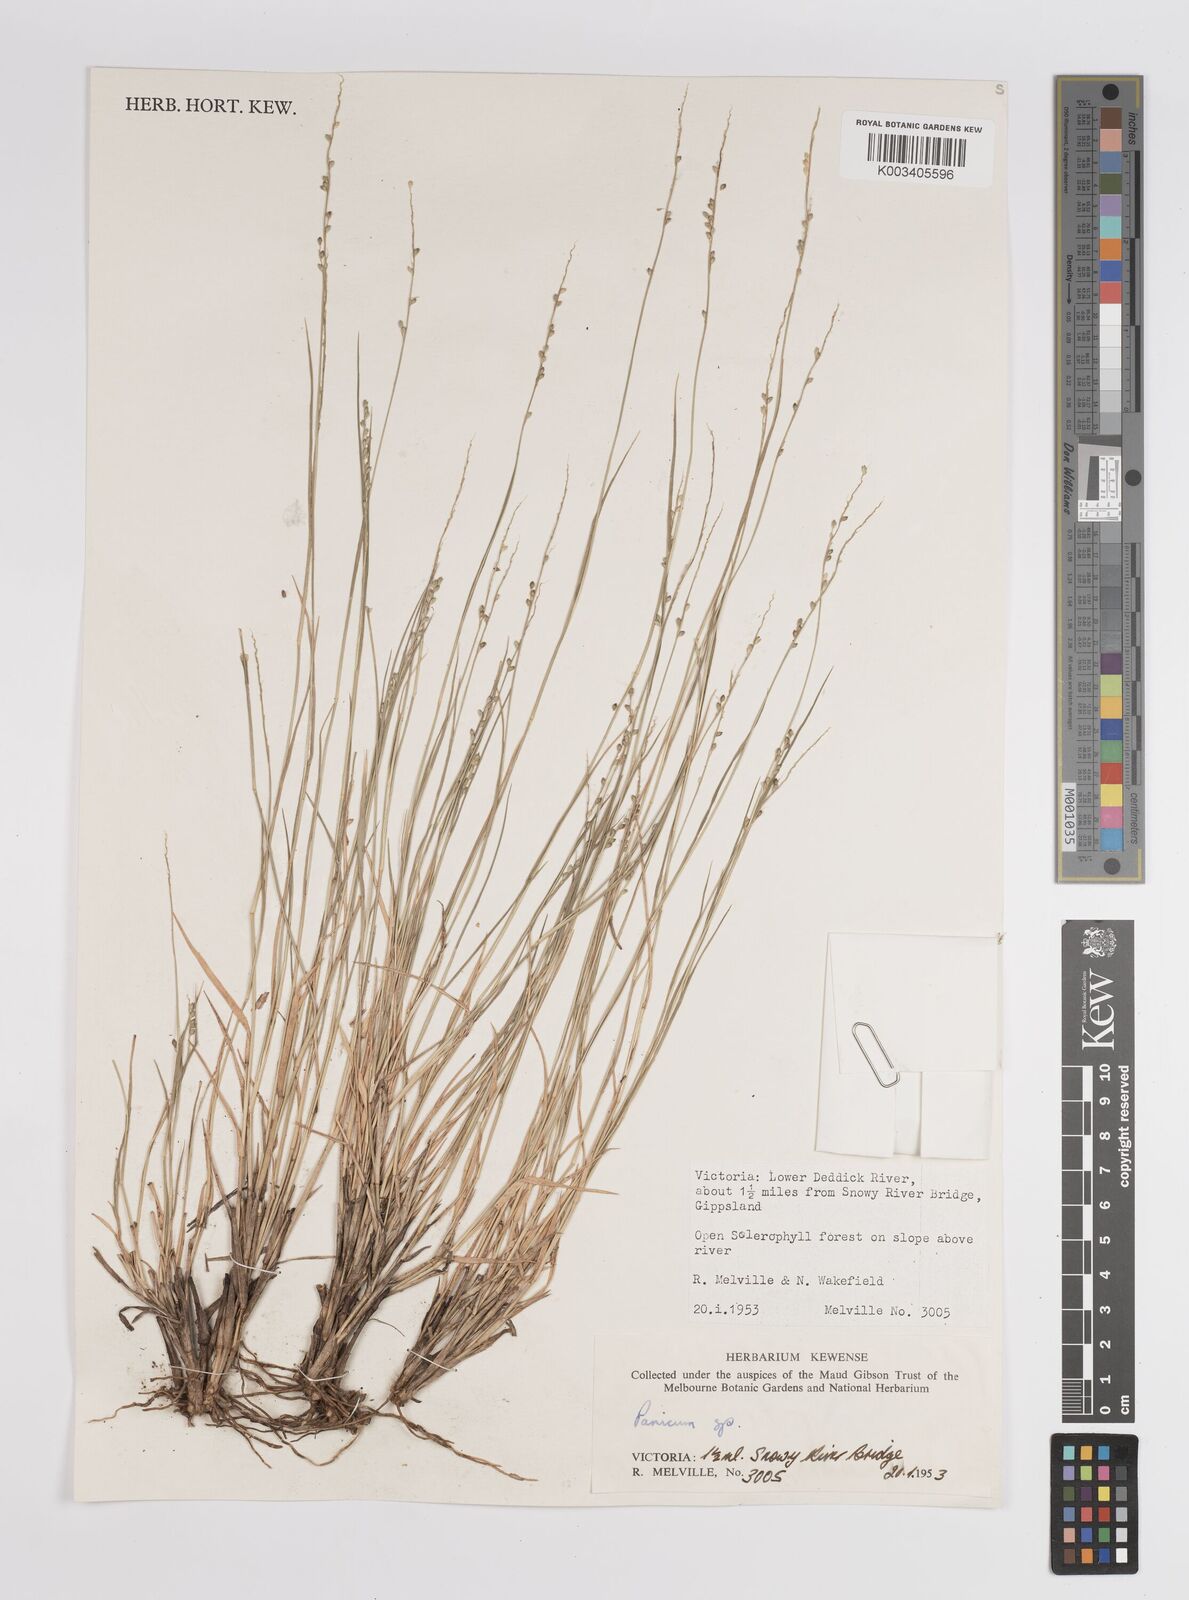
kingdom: Plantae
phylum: Tracheophyta
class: Liliopsida
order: Poales
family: Poaceae
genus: Panicum
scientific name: Panicum
